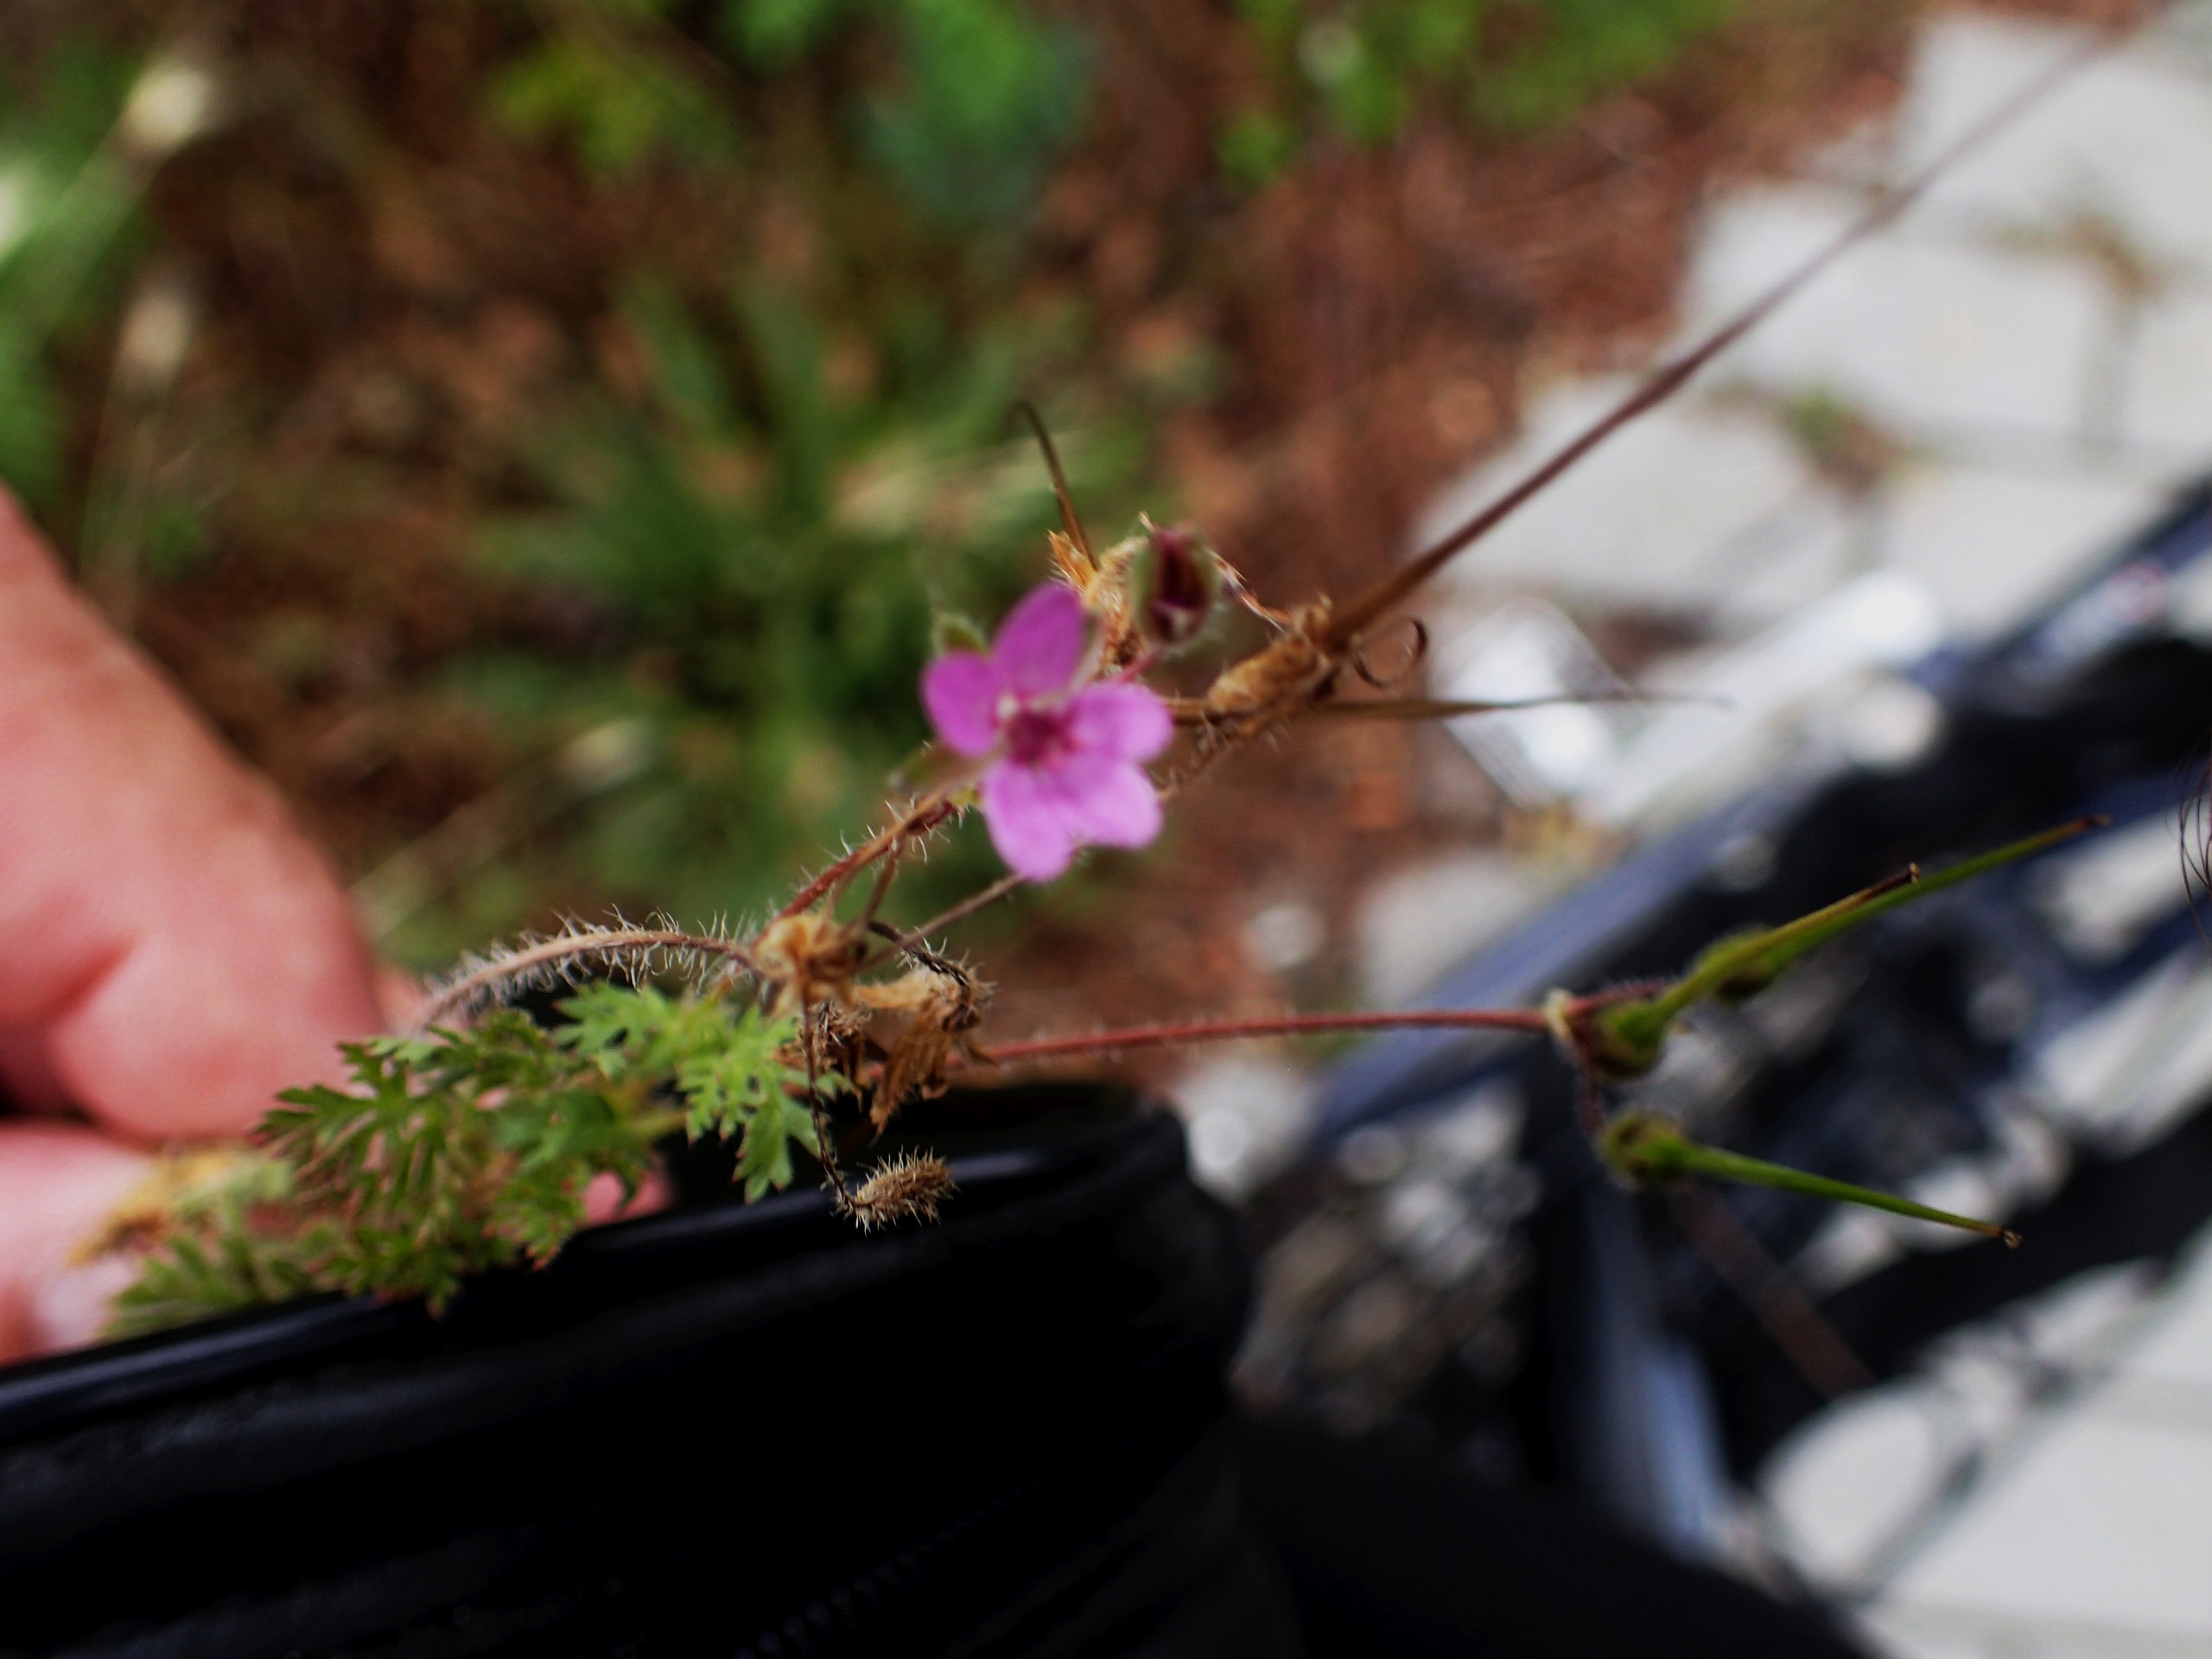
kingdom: Plantae
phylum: Tracheophyta
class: Magnoliopsida
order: Geraniales
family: Geraniaceae
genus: Erodium
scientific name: Erodium cicutarium
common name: Hejrenæb
